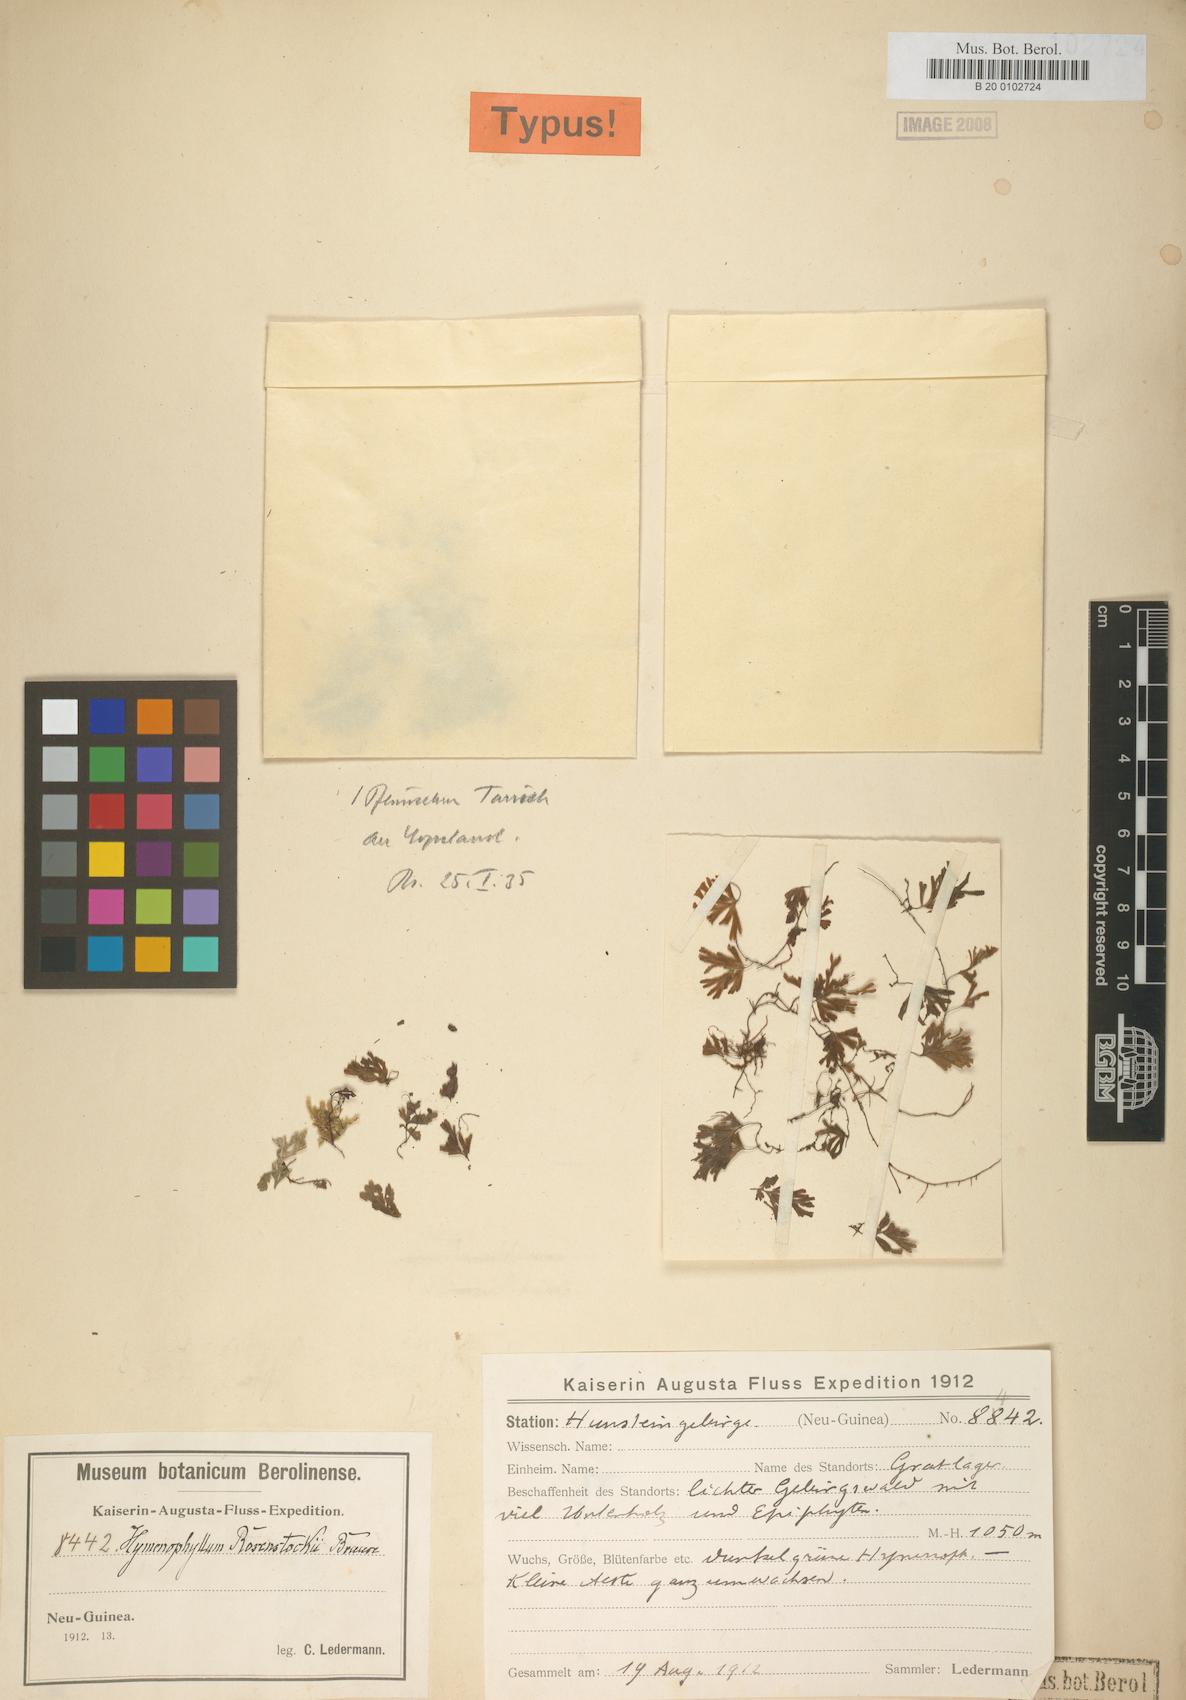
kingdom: Plantae
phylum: Tracheophyta
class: Polypodiopsida
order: Hymenophyllales
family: Hymenophyllaceae
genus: Hymenophyllum
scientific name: Hymenophyllum holochilum
